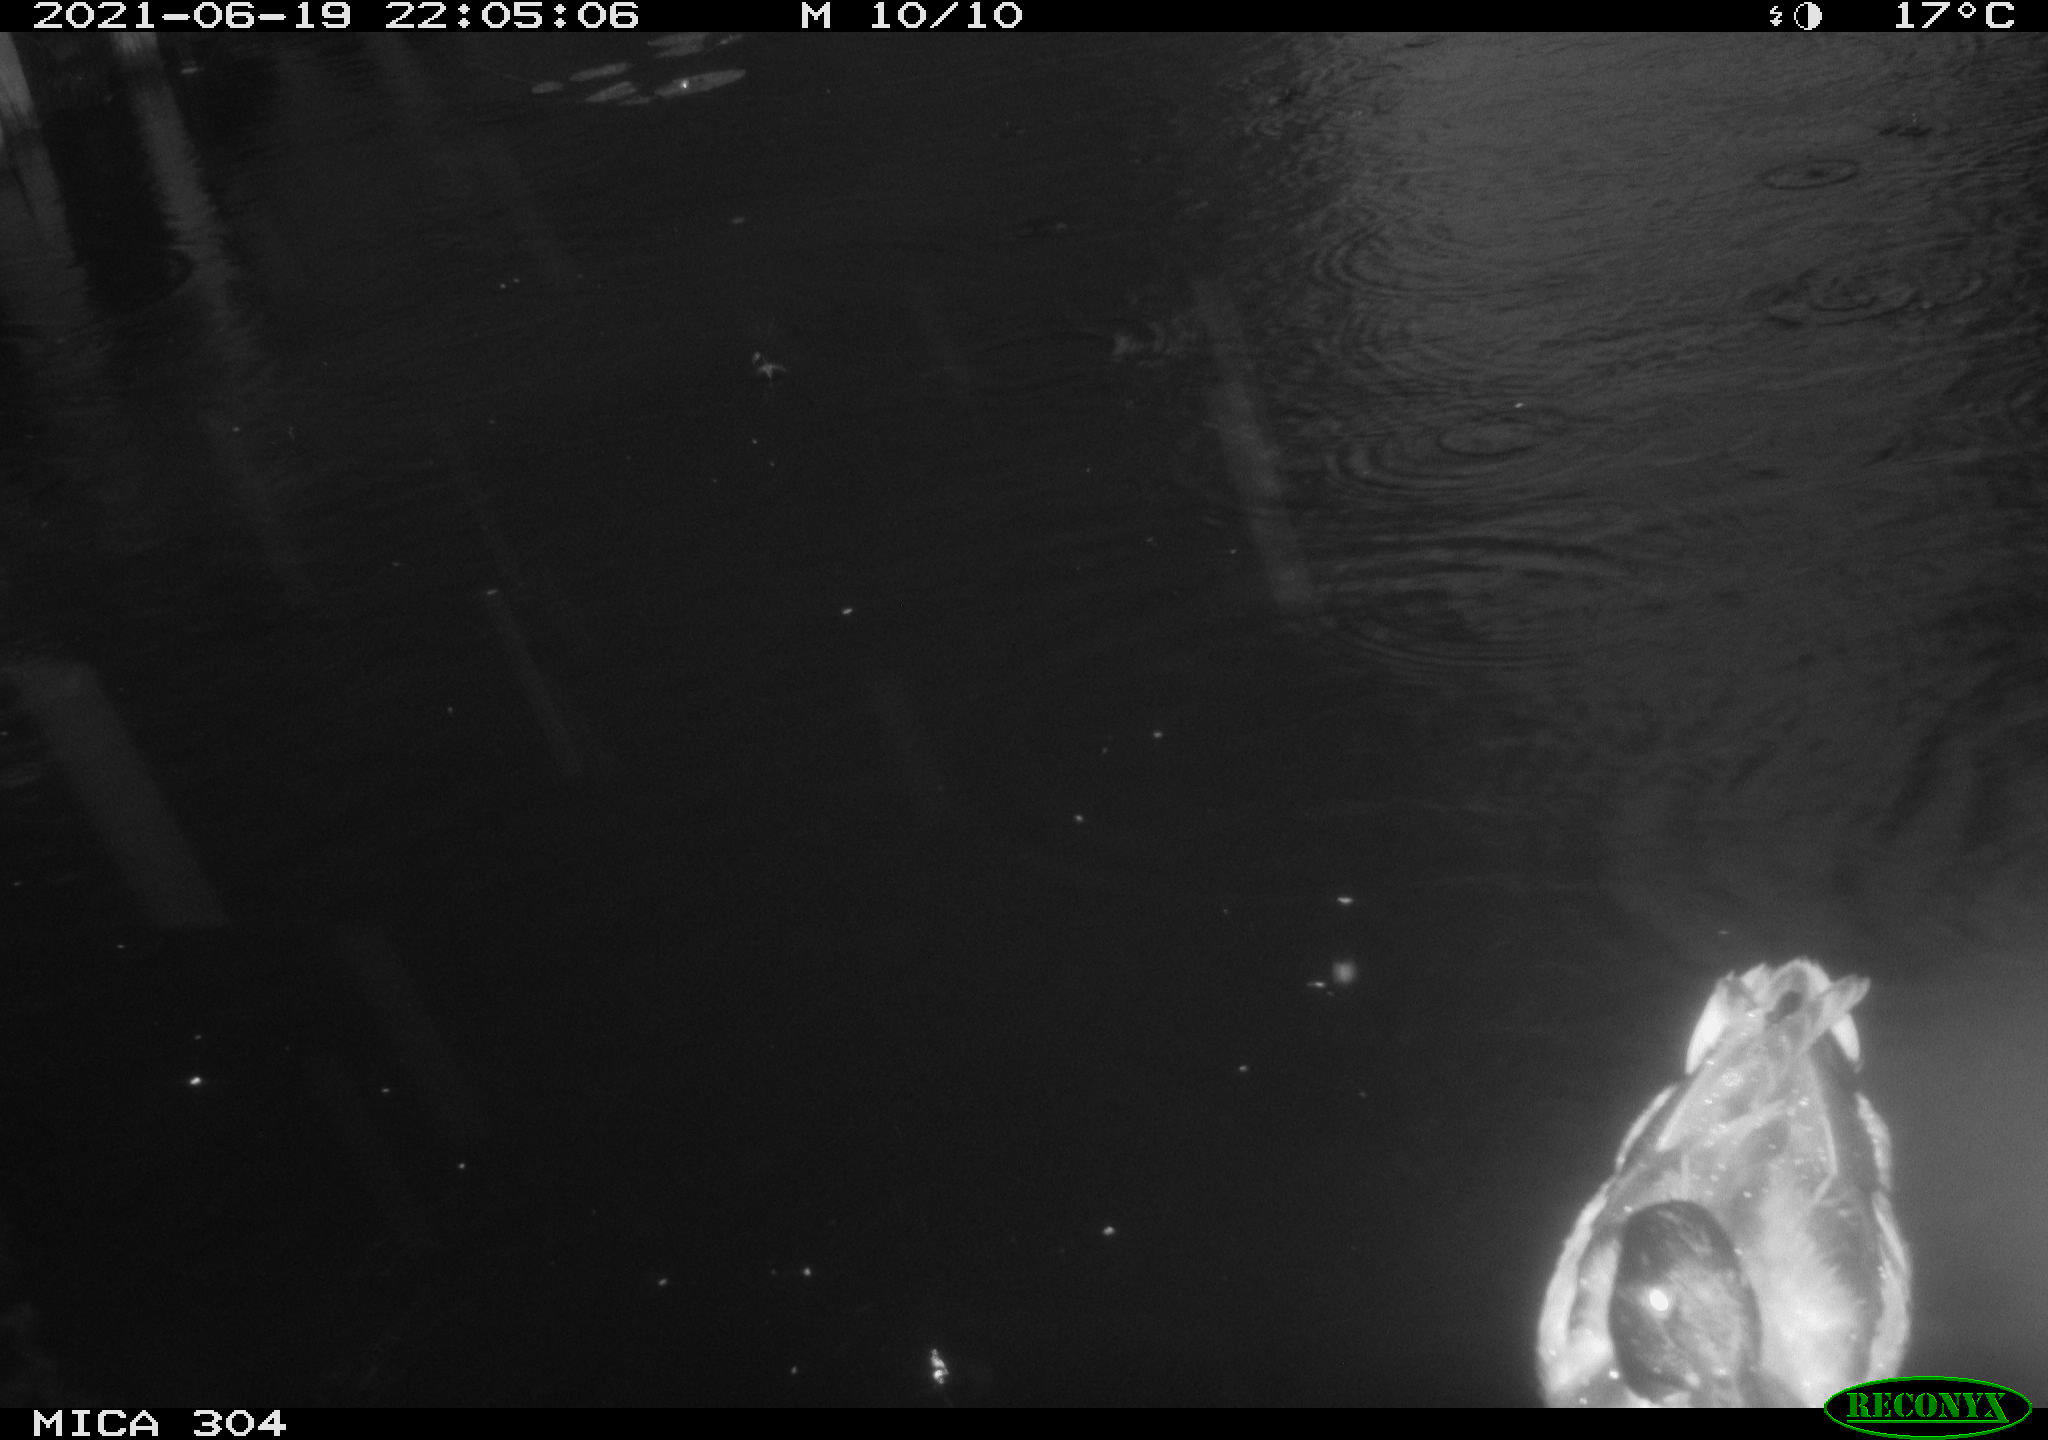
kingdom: Animalia
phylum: Chordata
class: Aves
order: Anseriformes
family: Anatidae
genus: Mareca
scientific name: Mareca strepera
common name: Gadwall
